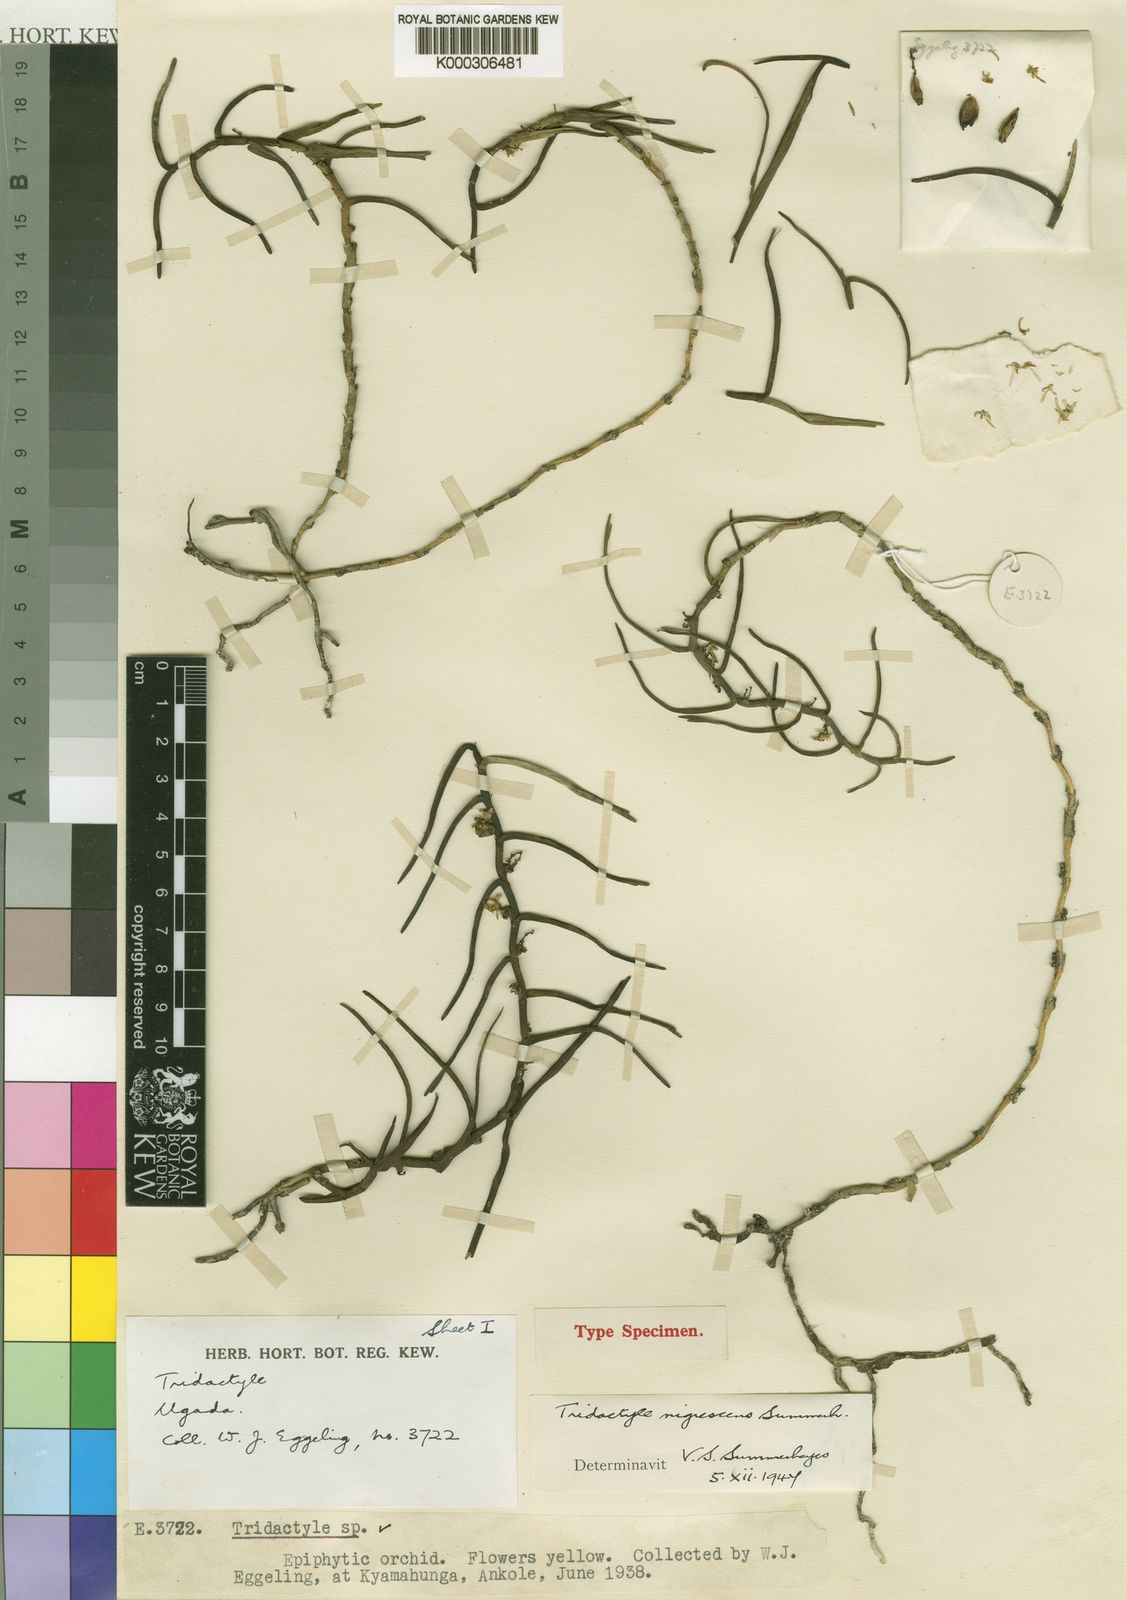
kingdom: Plantae
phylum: Tracheophyta
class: Liliopsida
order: Asparagales
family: Orchidaceae
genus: Tridactyle
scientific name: Tridactyle nigrescens
